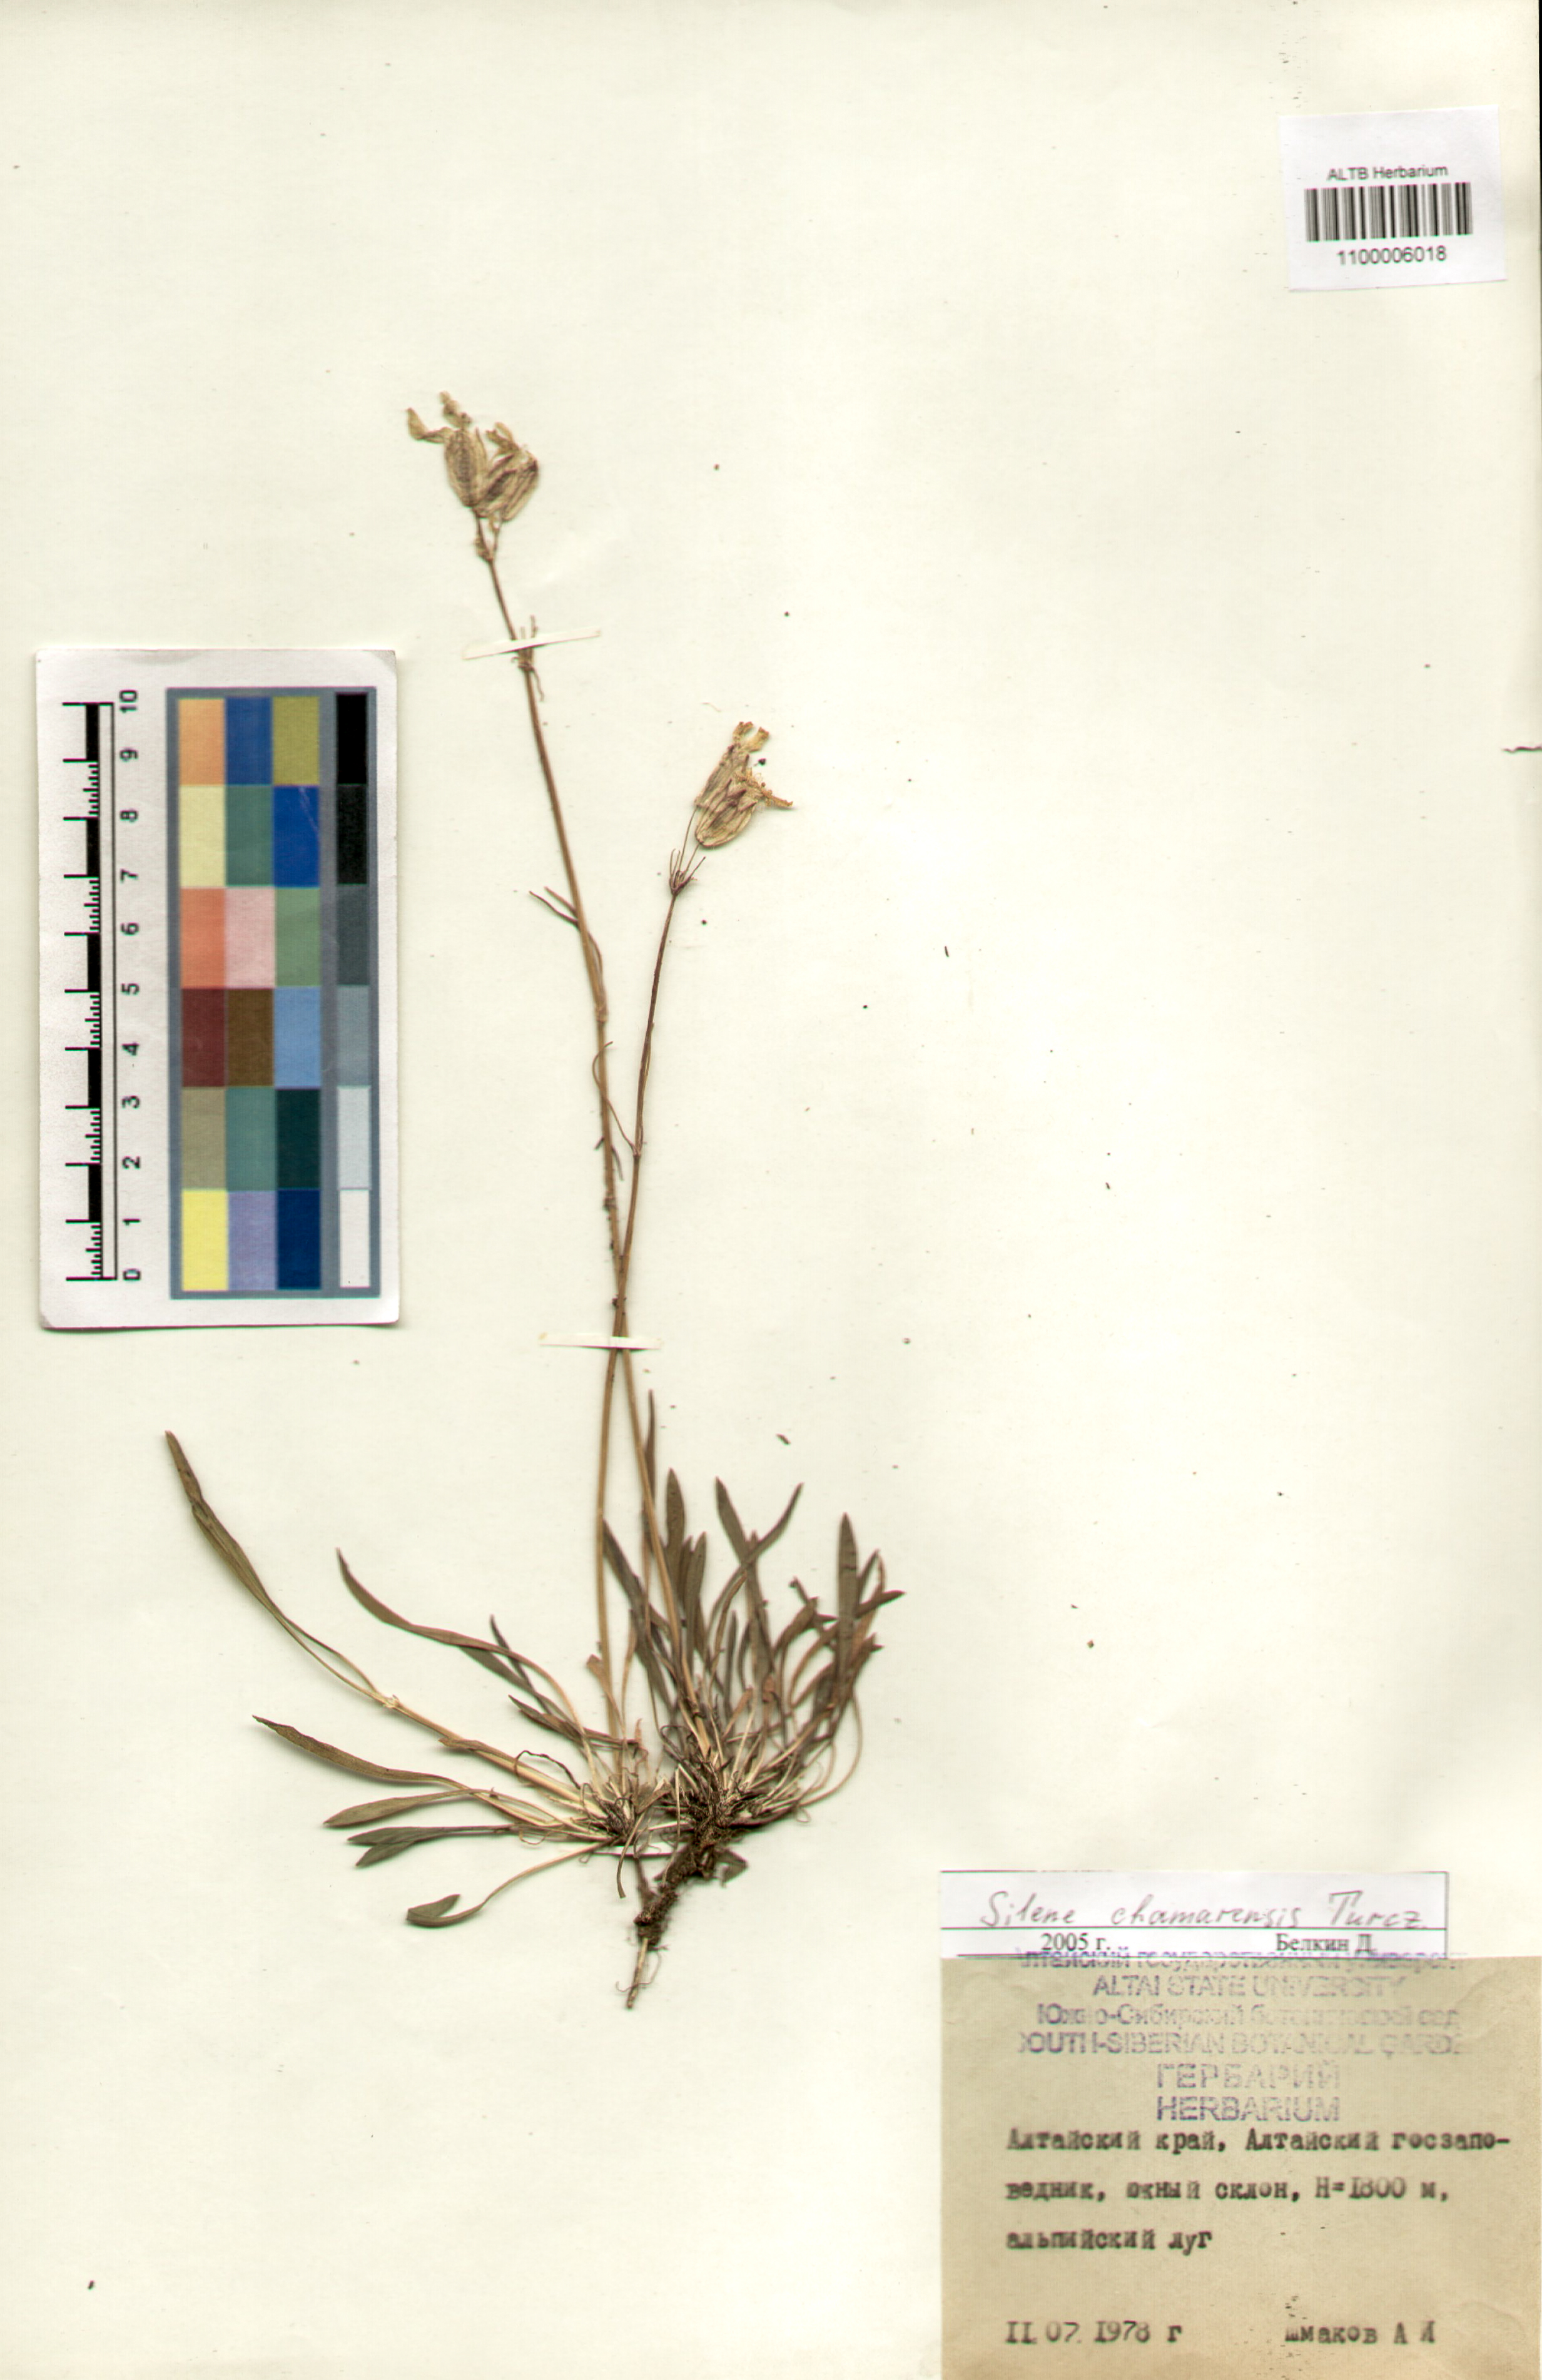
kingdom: Plantae
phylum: Tracheophyta
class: Magnoliopsida
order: Caryophyllales
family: Caryophyllaceae
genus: Silene
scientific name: Silene chamarensis
